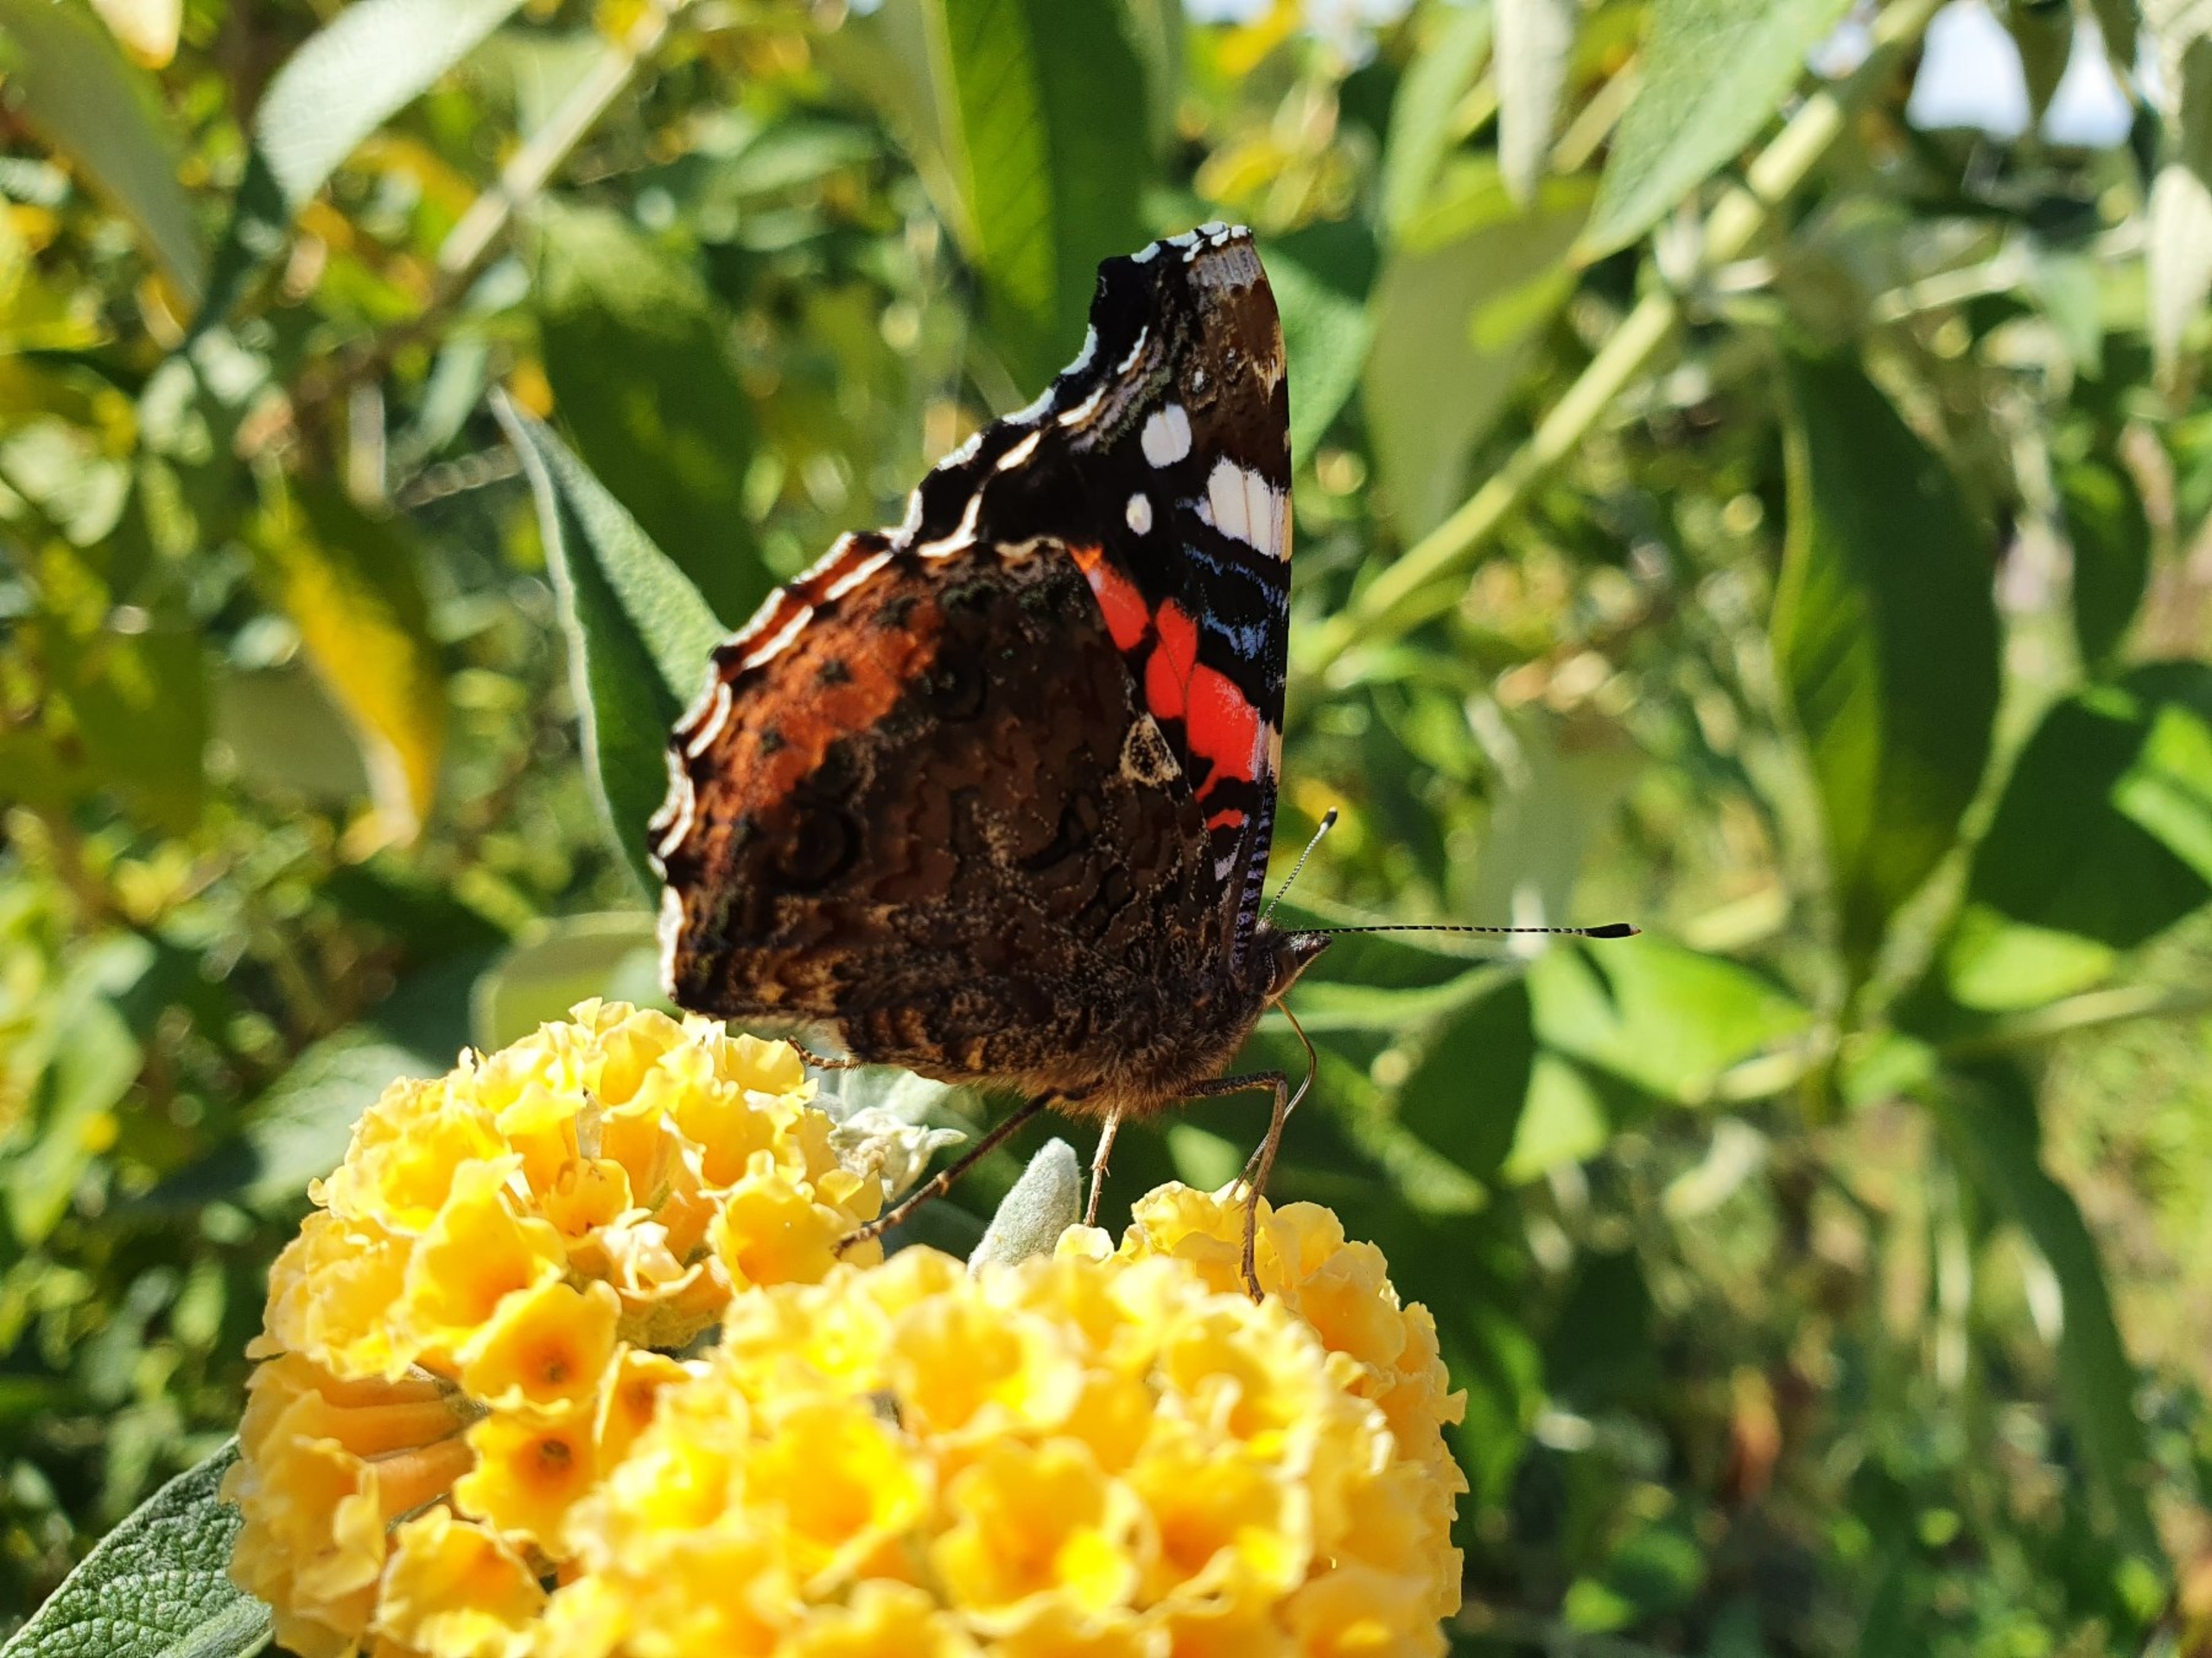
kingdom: Animalia
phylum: Arthropoda
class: Insecta
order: Lepidoptera
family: Nymphalidae
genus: Vanessa
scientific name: Vanessa atalanta
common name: Admiral
